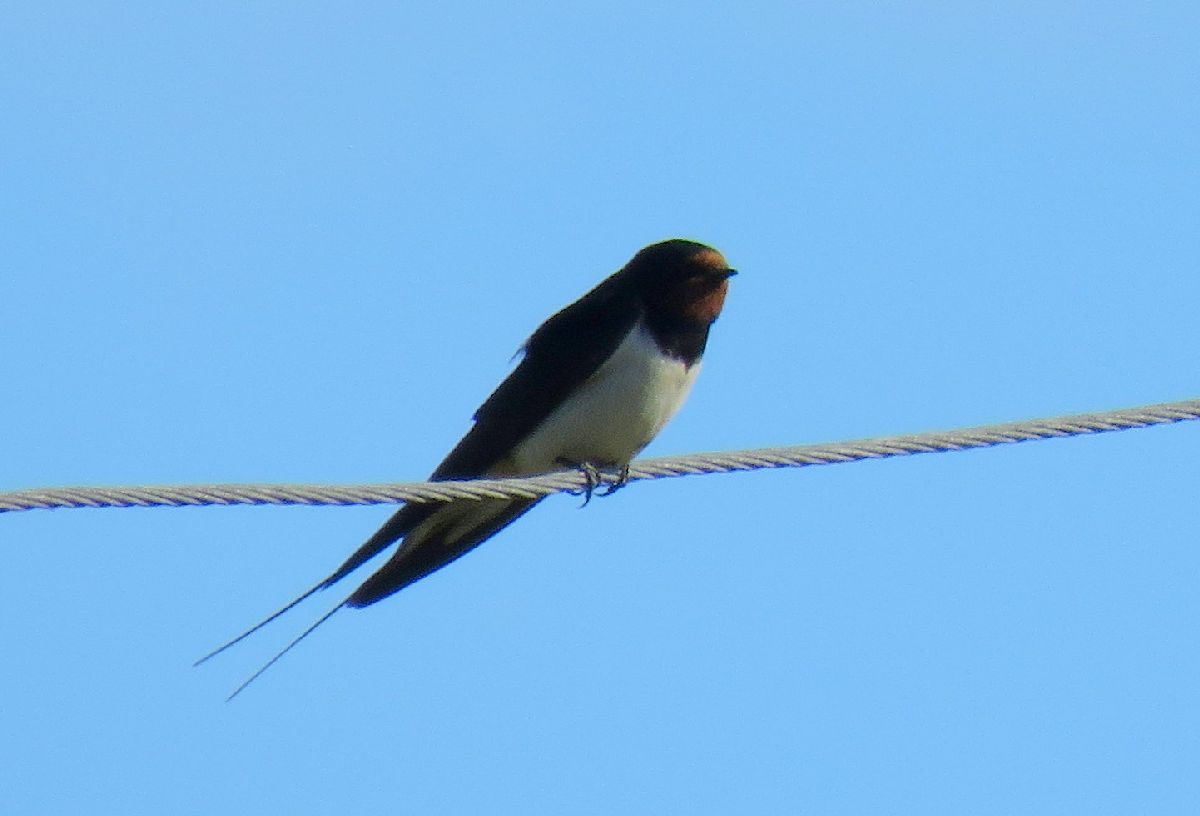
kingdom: Animalia
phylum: Chordata
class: Aves
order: Passeriformes
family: Hirundinidae
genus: Hirundo
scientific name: Hirundo rustica
